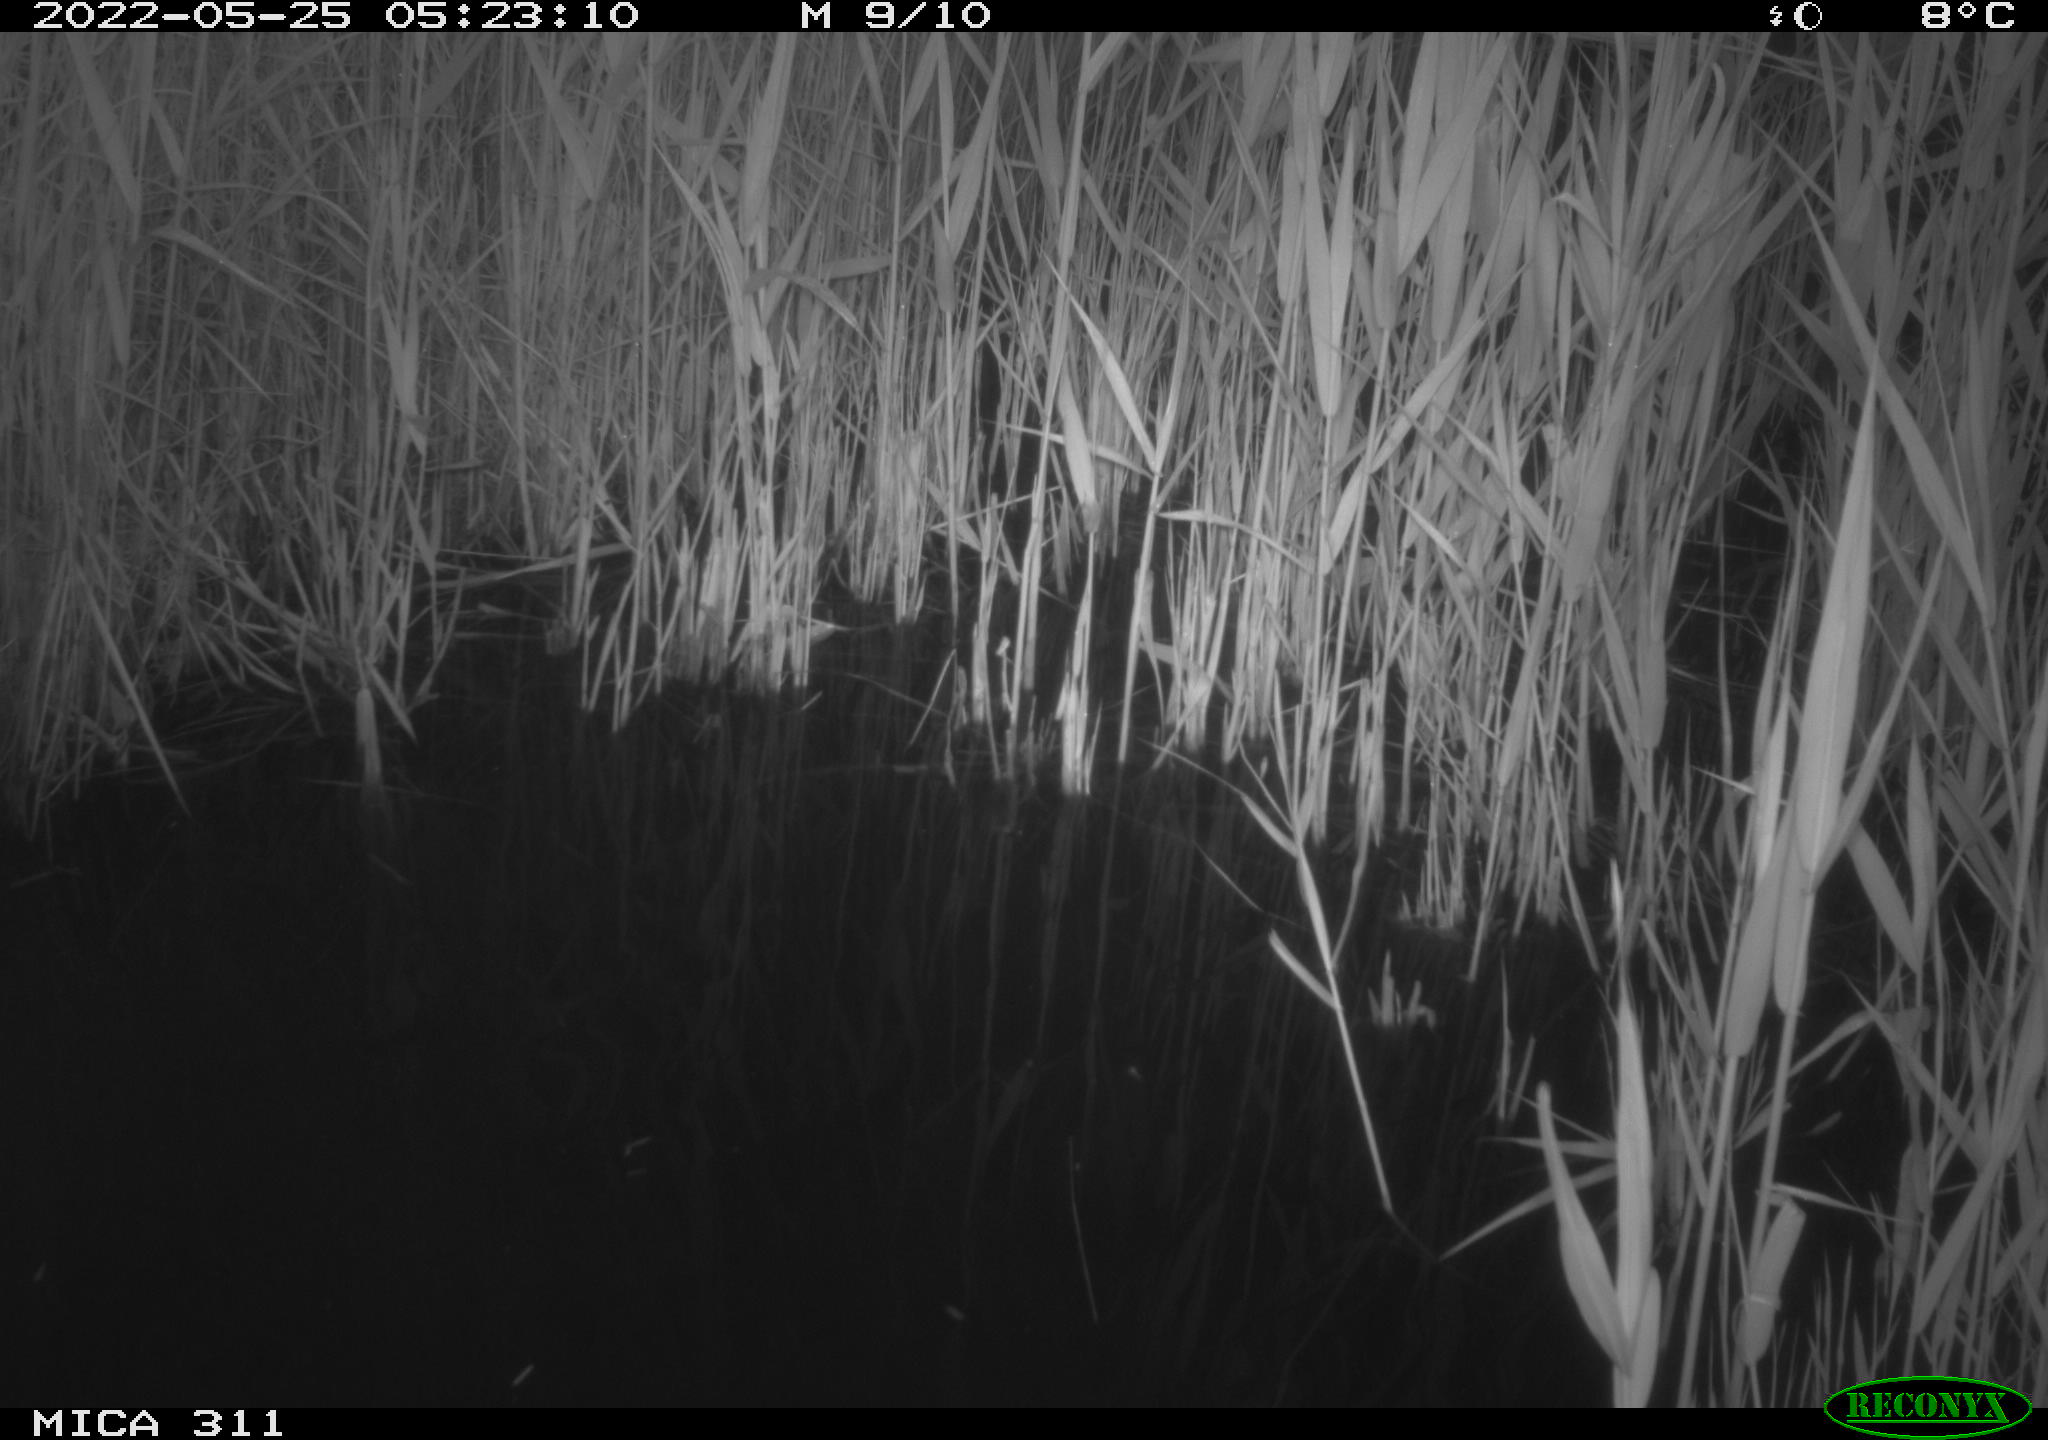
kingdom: Animalia
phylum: Chordata
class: Aves
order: Gruiformes
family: Rallidae
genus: Gallinula
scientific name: Gallinula chloropus
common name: Common moorhen
